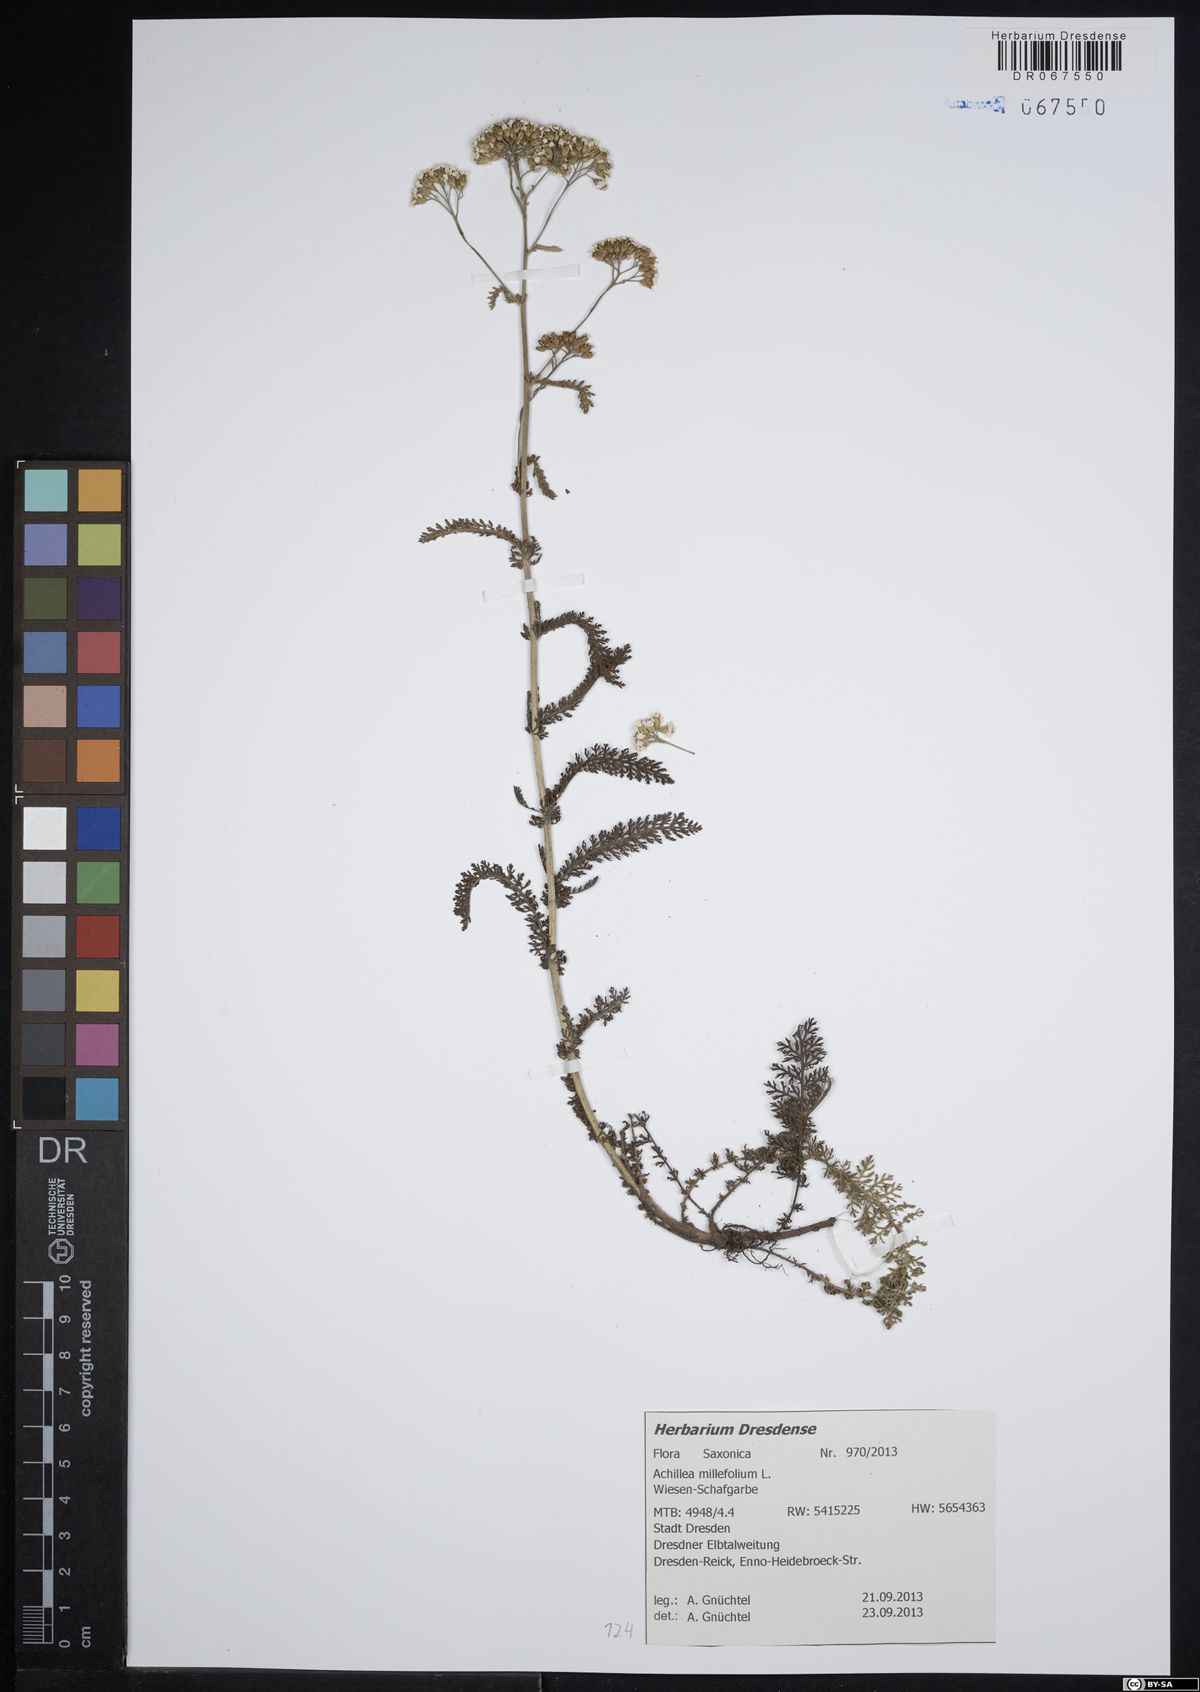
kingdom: Plantae
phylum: Tracheophyta
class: Magnoliopsida
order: Asterales
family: Asteraceae
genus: Achillea
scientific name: Achillea millefolium
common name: Yarrow
